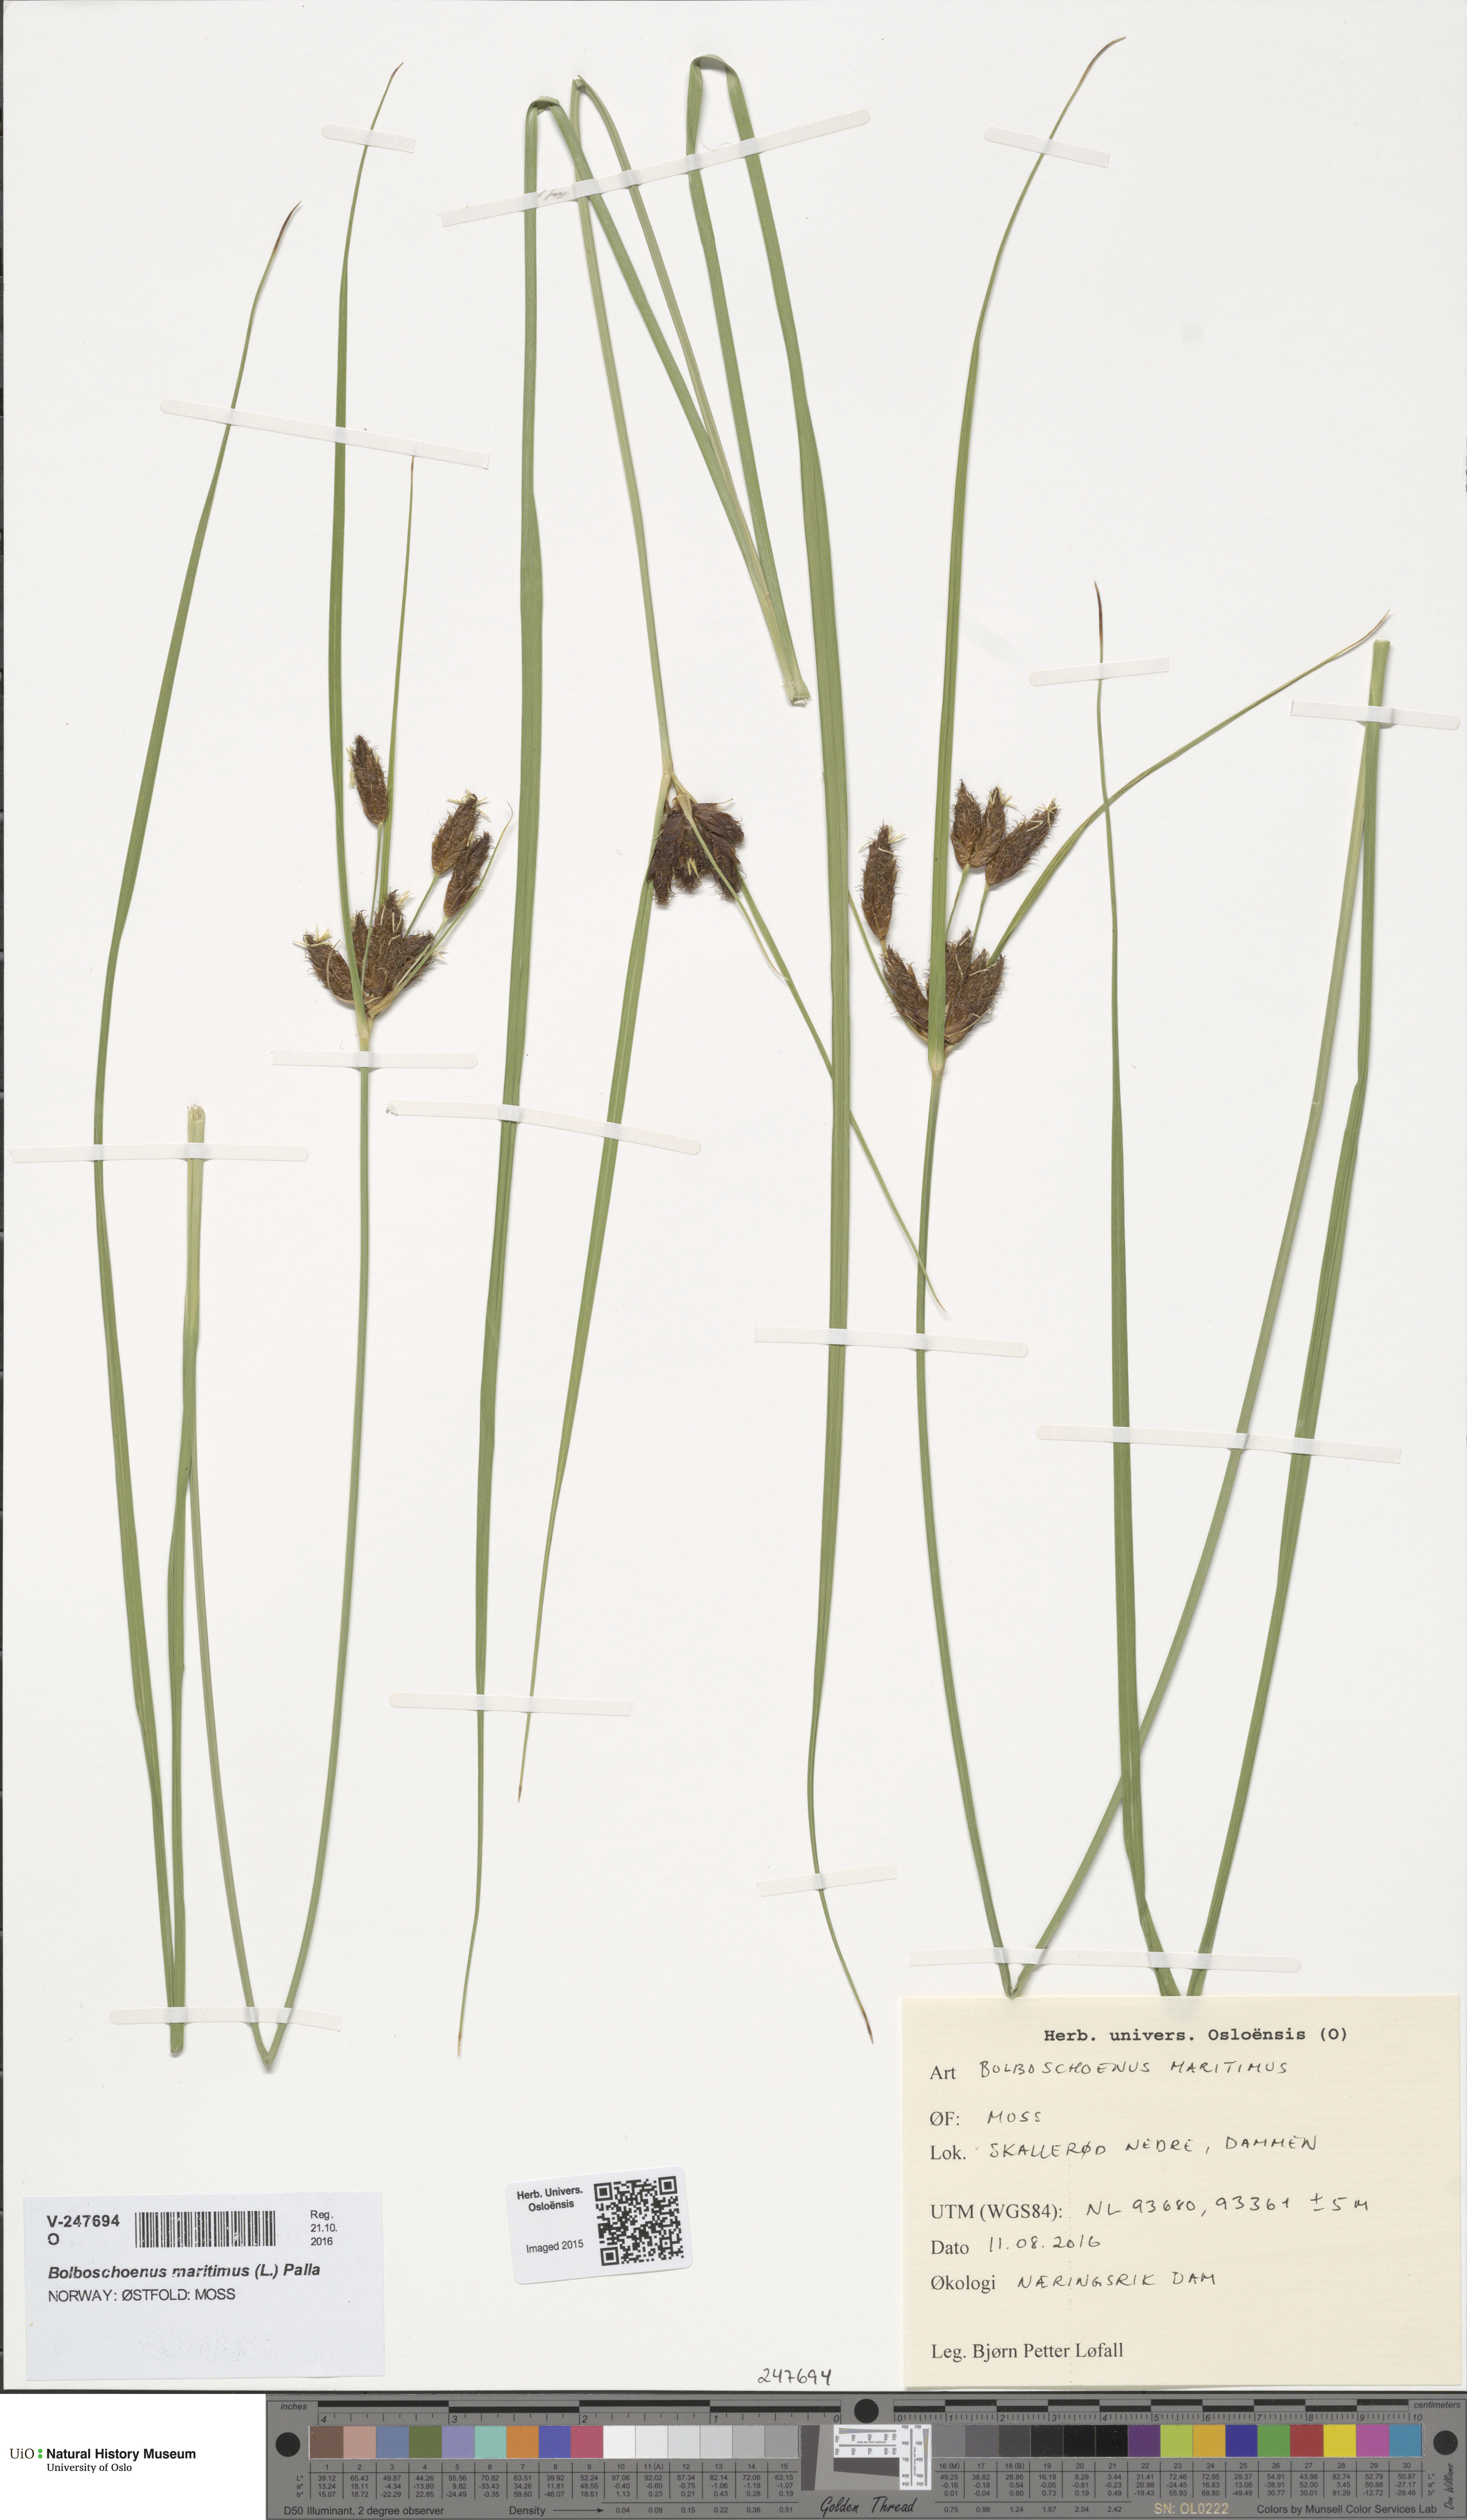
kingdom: Plantae
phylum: Tracheophyta
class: Liliopsida
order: Poales
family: Cyperaceae
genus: Bolboschoenus
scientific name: Bolboschoenus maritimus
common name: Sea club-rush
